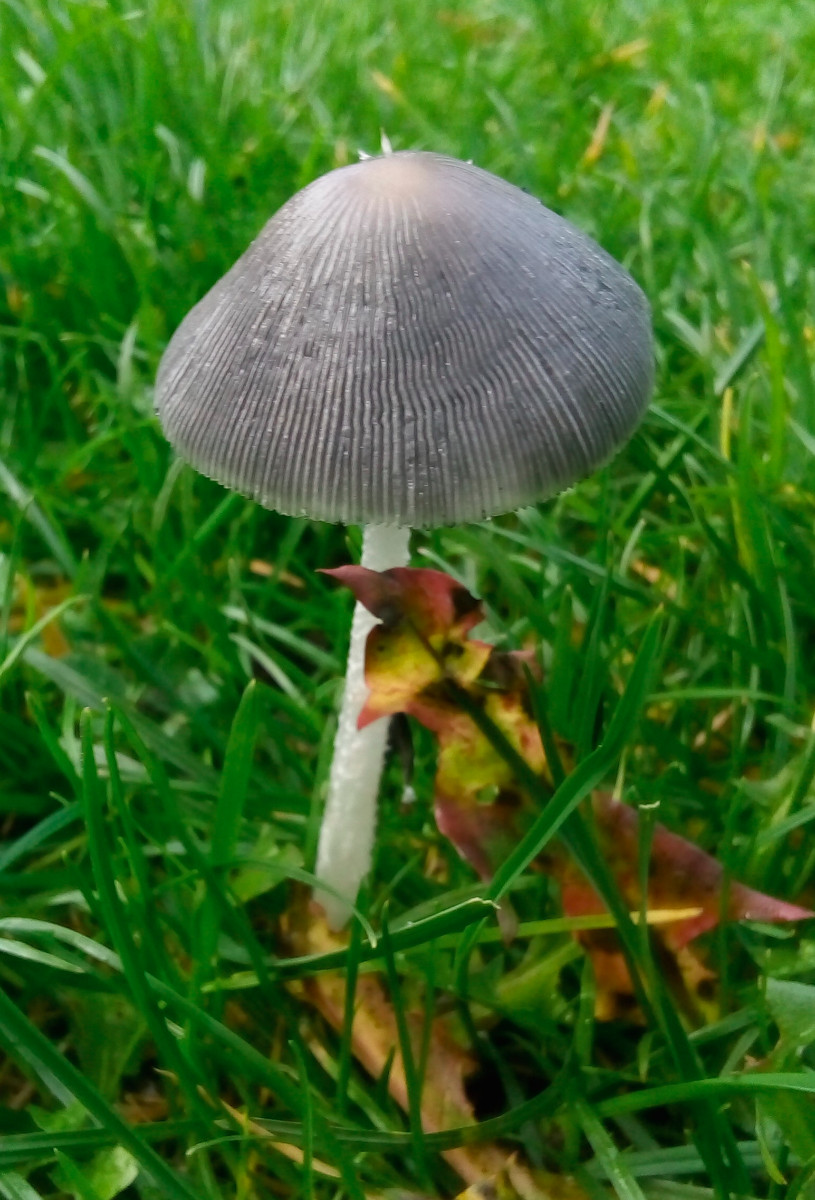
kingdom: Fungi
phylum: Basidiomycota
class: Agaricomycetes
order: Agaricales
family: Psathyrellaceae
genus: Coprinopsis
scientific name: Coprinopsis lagopus
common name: dunstokket blækhat
